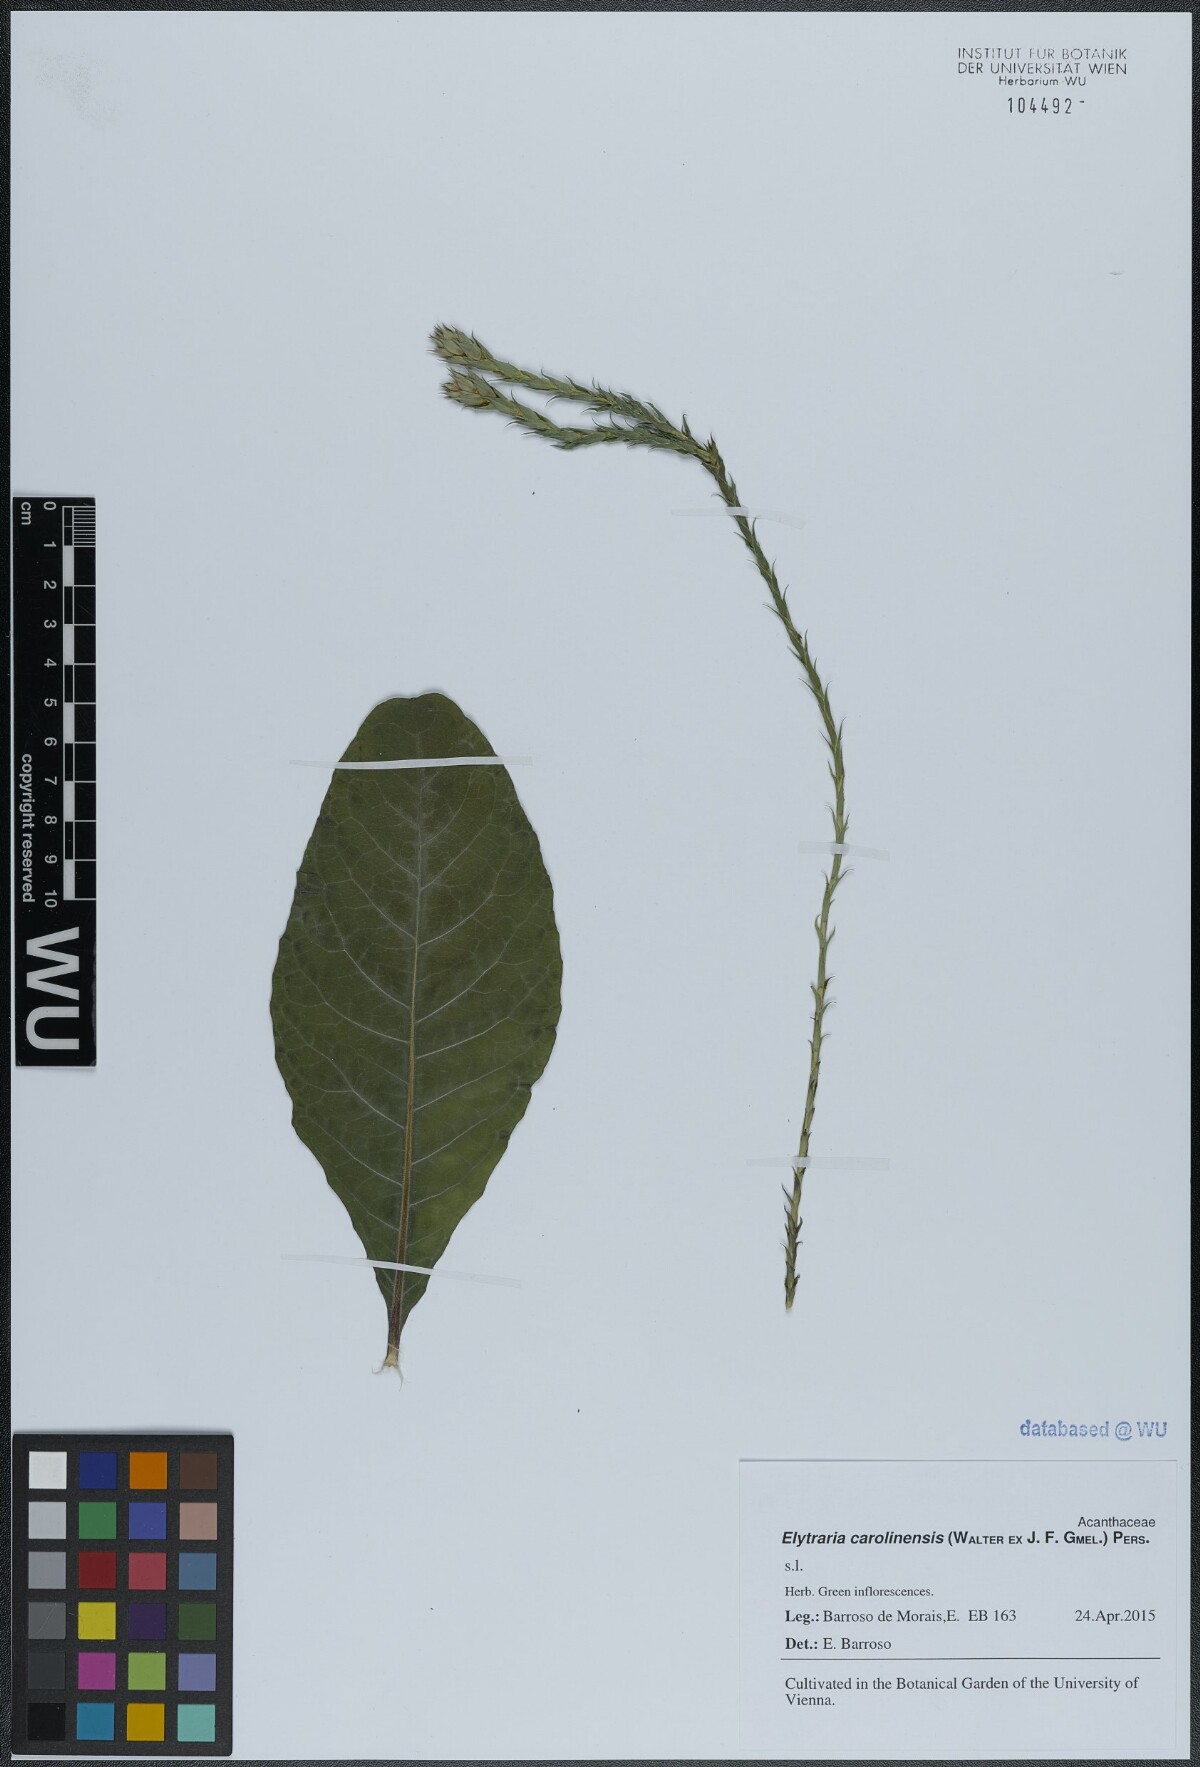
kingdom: Plantae
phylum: Tracheophyta
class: Magnoliopsida
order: Lamiales
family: Acanthaceae
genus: Elytraria
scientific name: Elytraria carolinensis
